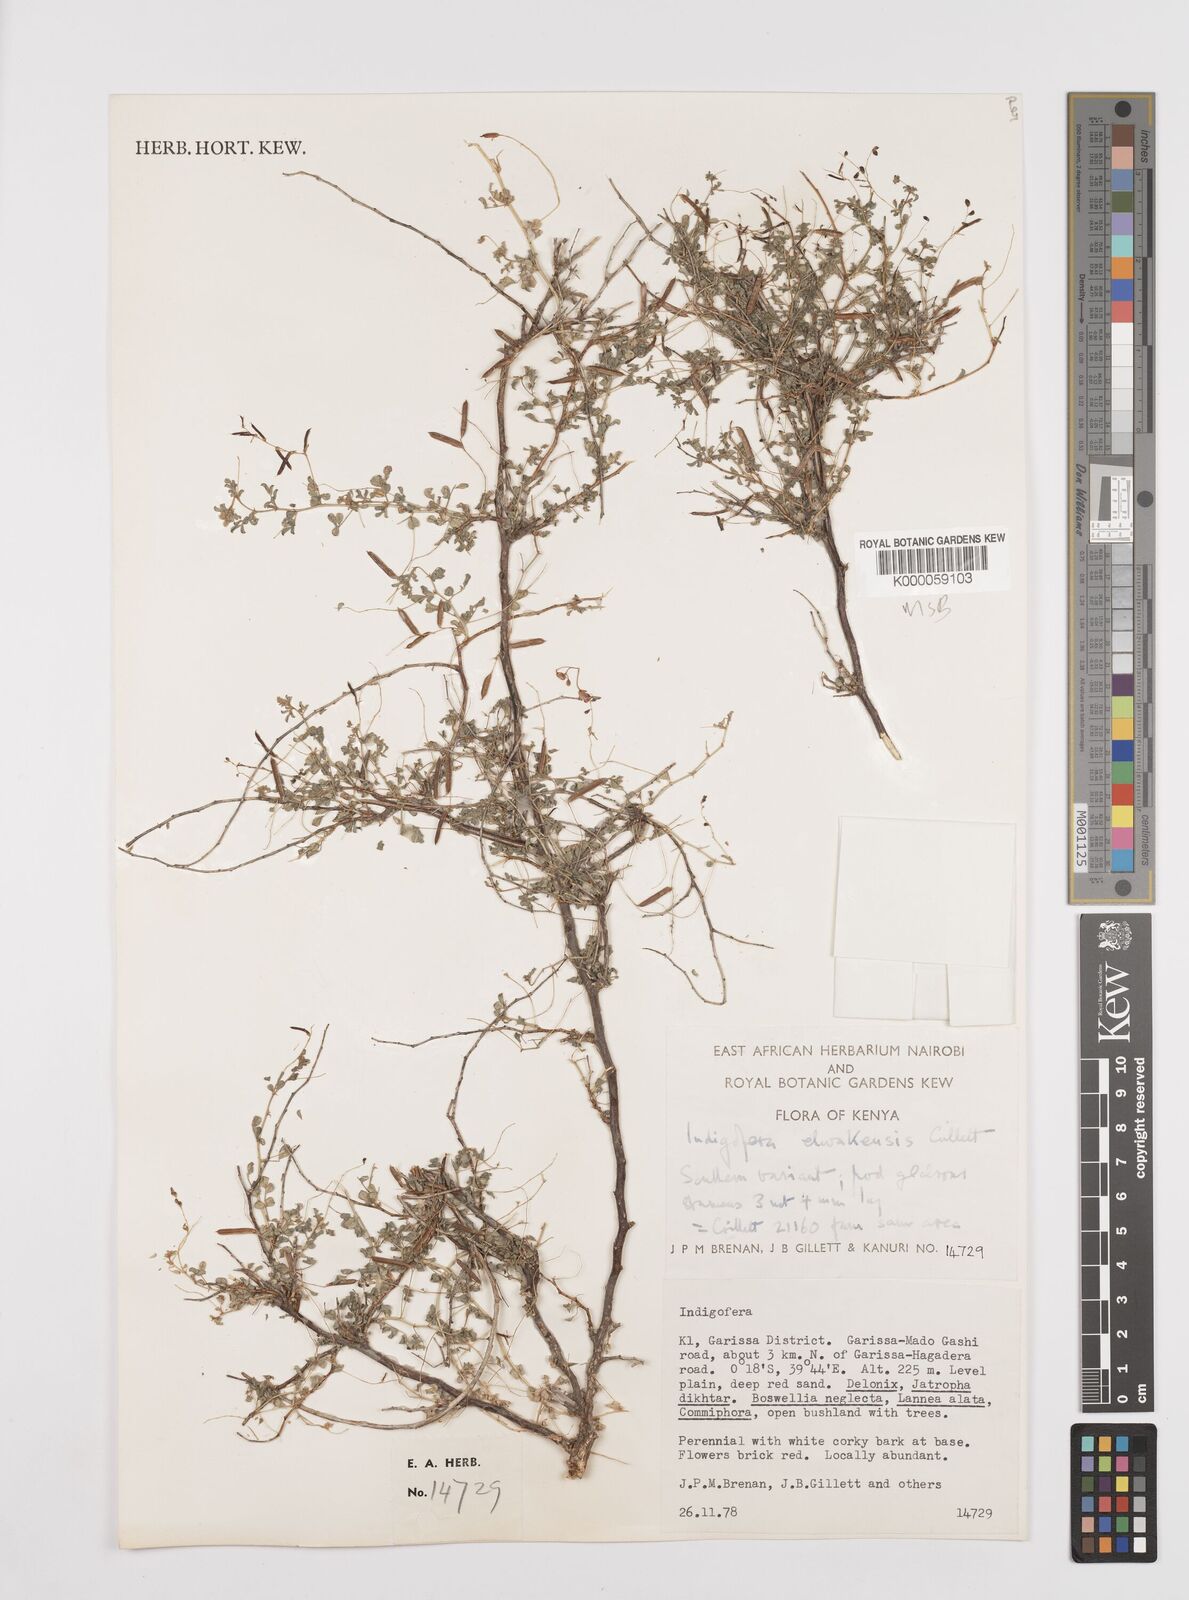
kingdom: Plantae
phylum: Tracheophyta
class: Magnoliopsida
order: Fabales
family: Fabaceae
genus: Indigofera
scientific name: Indigofera elwakensis
